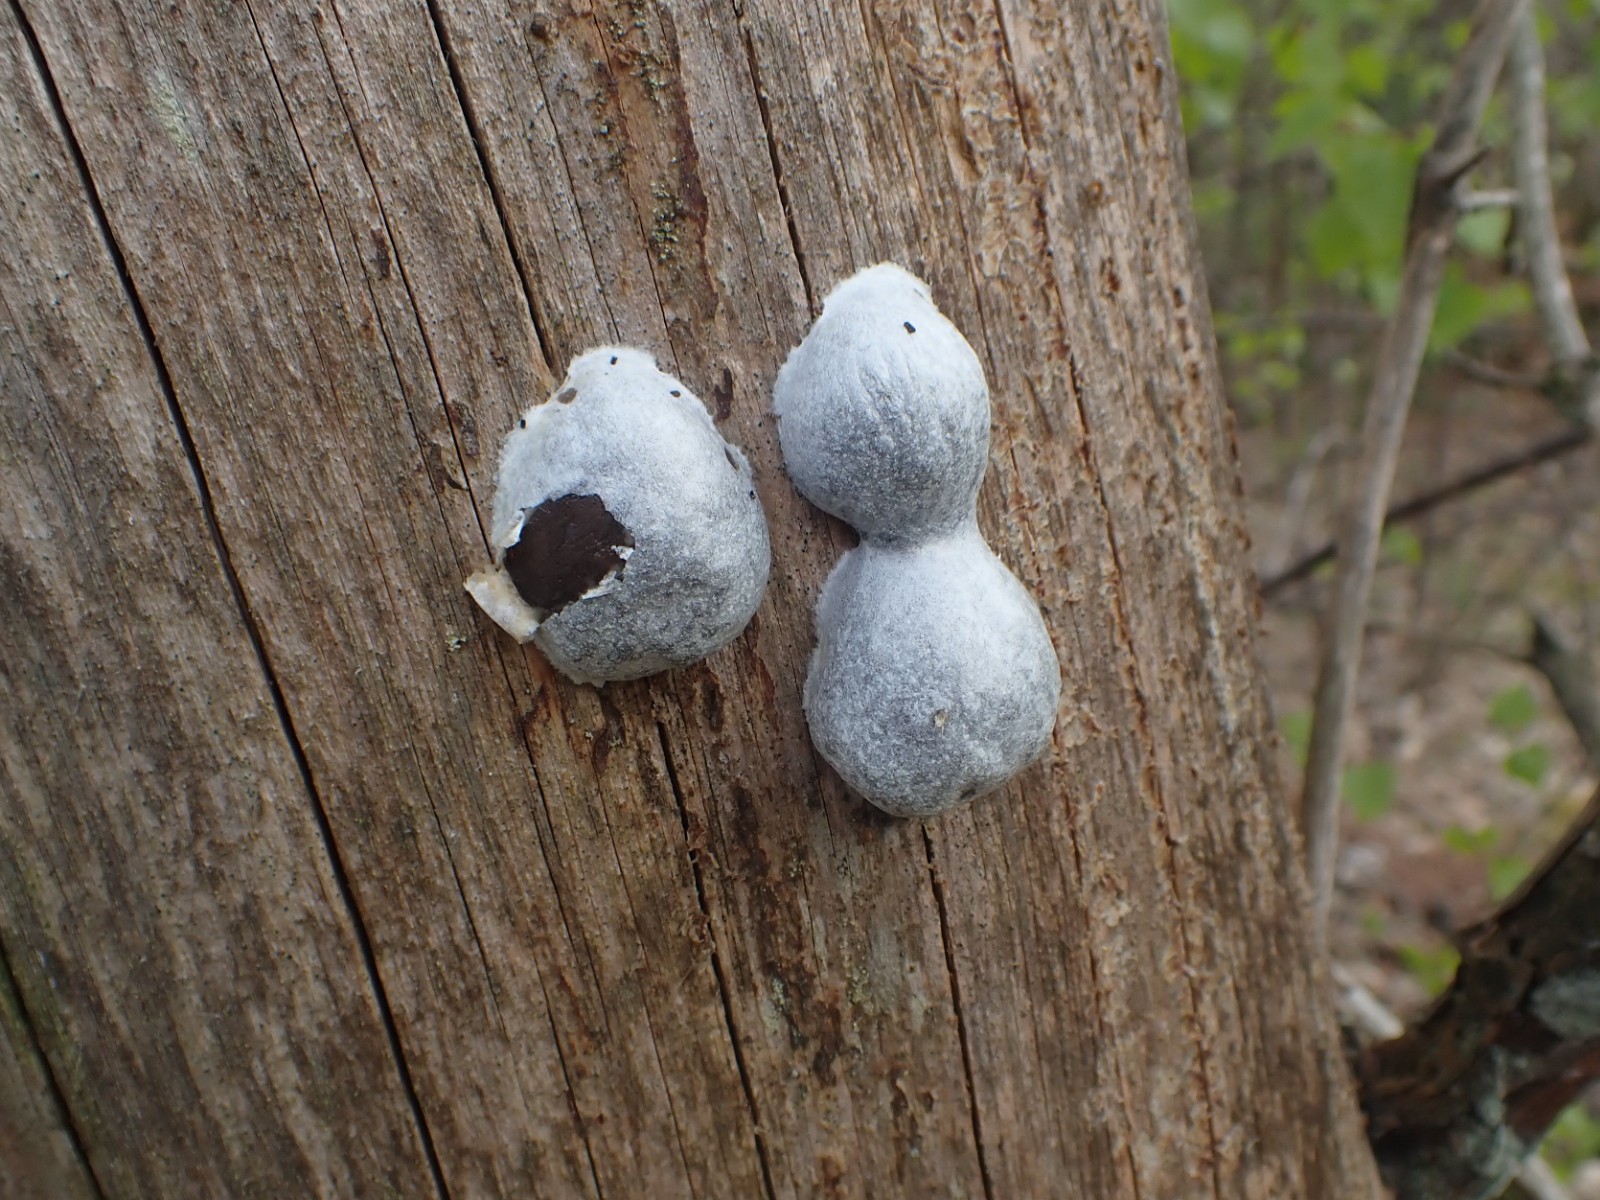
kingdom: Protozoa
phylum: Mycetozoa
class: Myxomycetes
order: Cribrariales
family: Tubiferaceae
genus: Reticularia
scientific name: Reticularia lycoperdon
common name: skinnende støvpude
